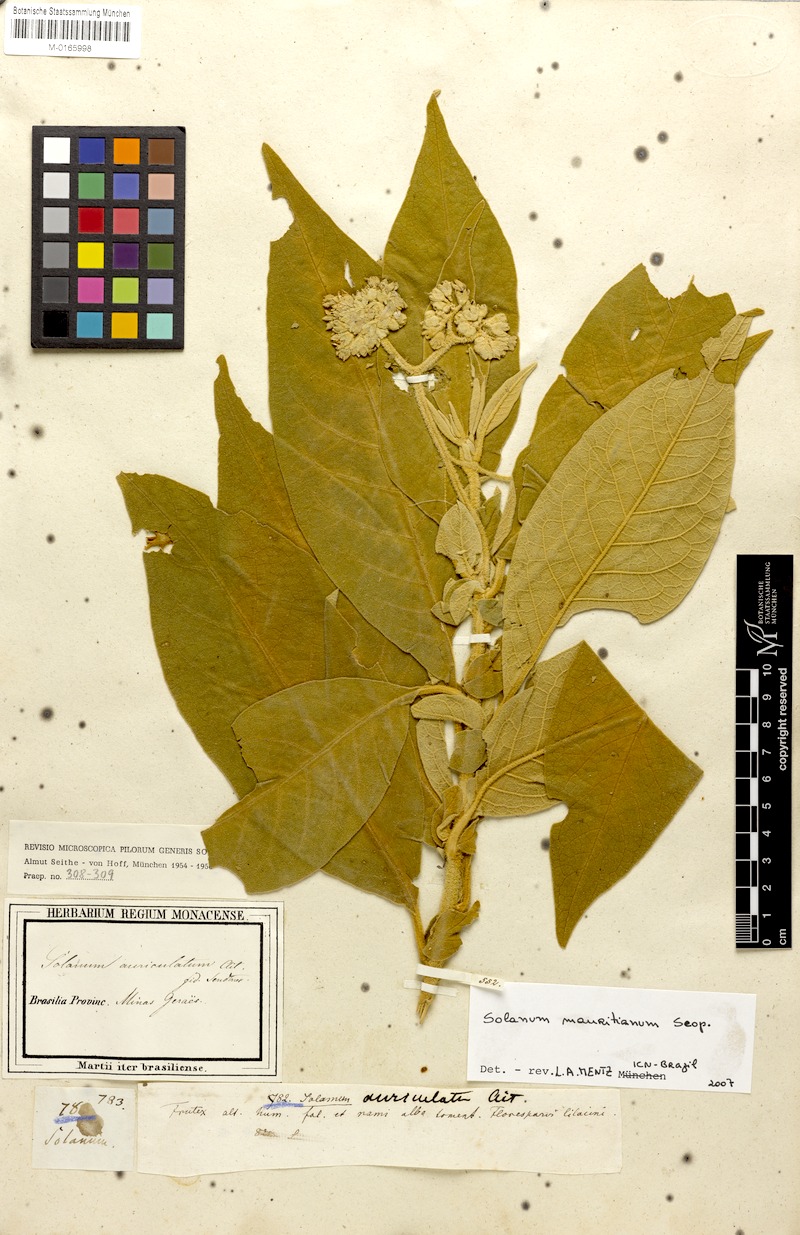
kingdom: Plantae
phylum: Tracheophyta
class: Magnoliopsida
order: Solanales
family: Solanaceae
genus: Solanum
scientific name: Solanum mauritianum
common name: Earleaf nightshade
